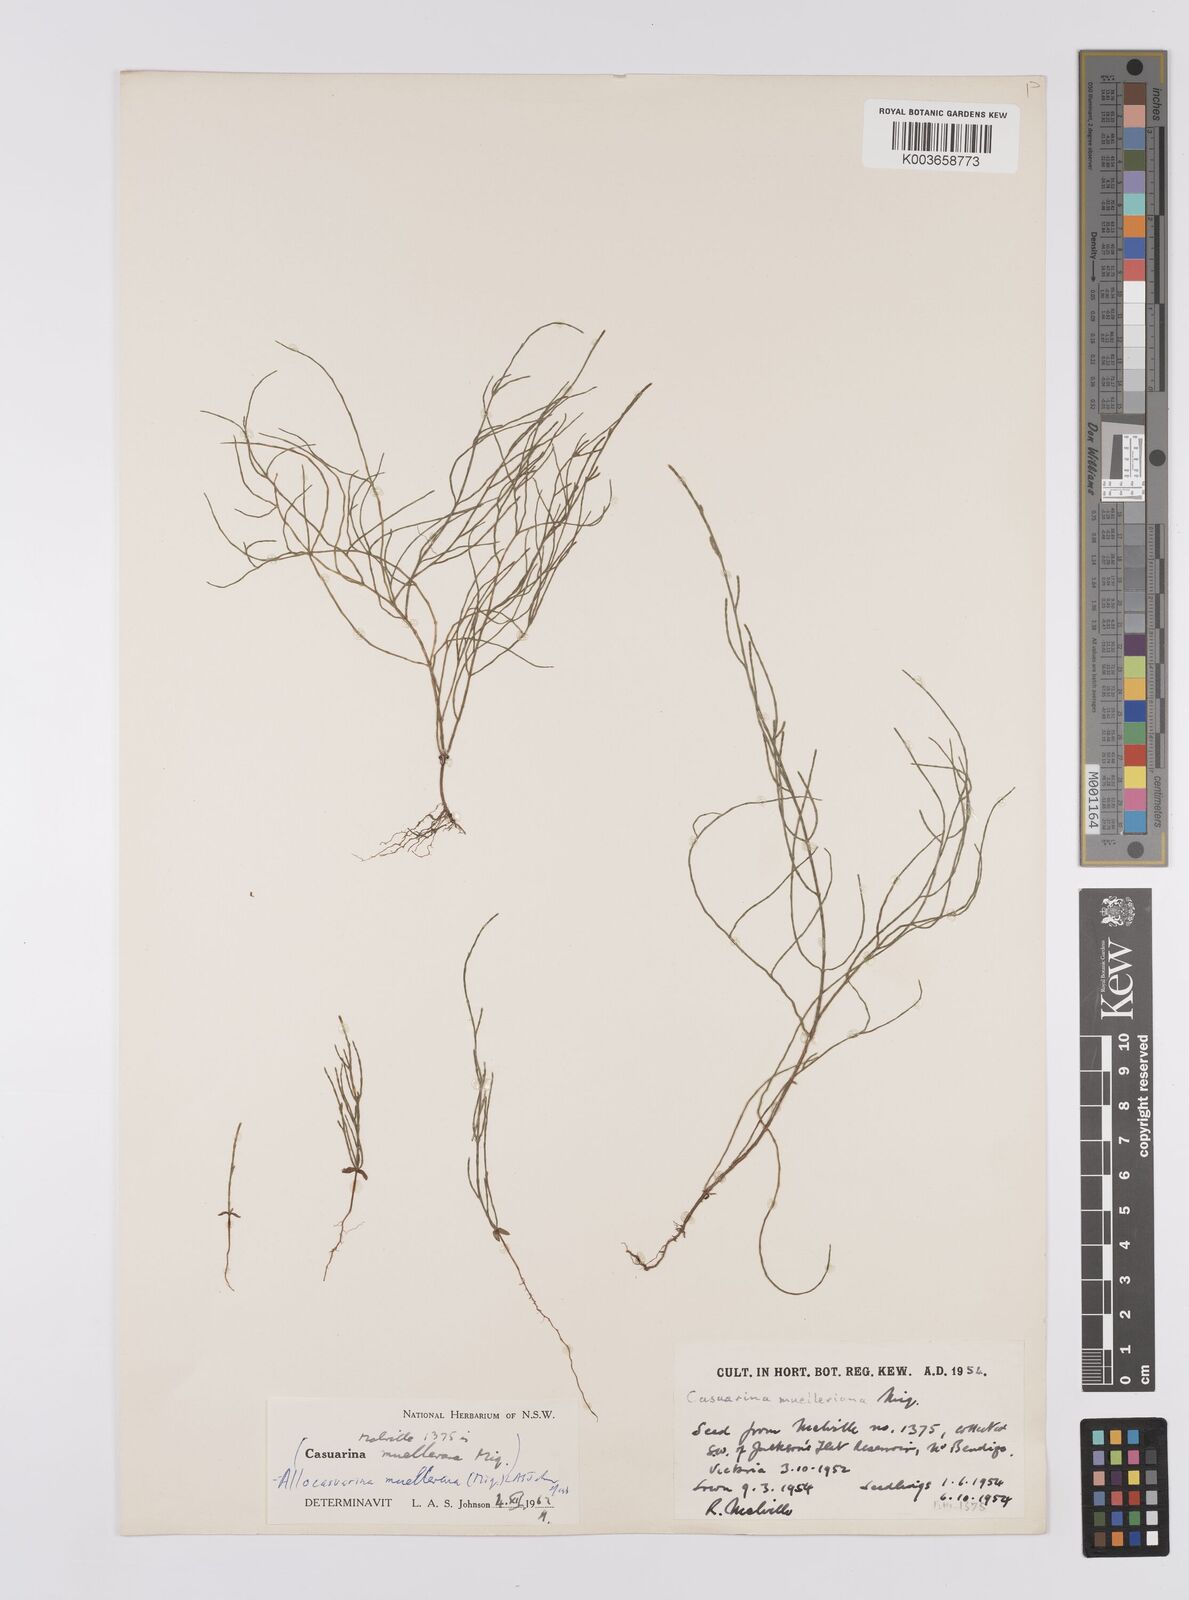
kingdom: Plantae
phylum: Tracheophyta
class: Magnoliopsida
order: Fagales
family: Casuarinaceae
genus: Allocasuarina
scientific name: Allocasuarina muelleriana
